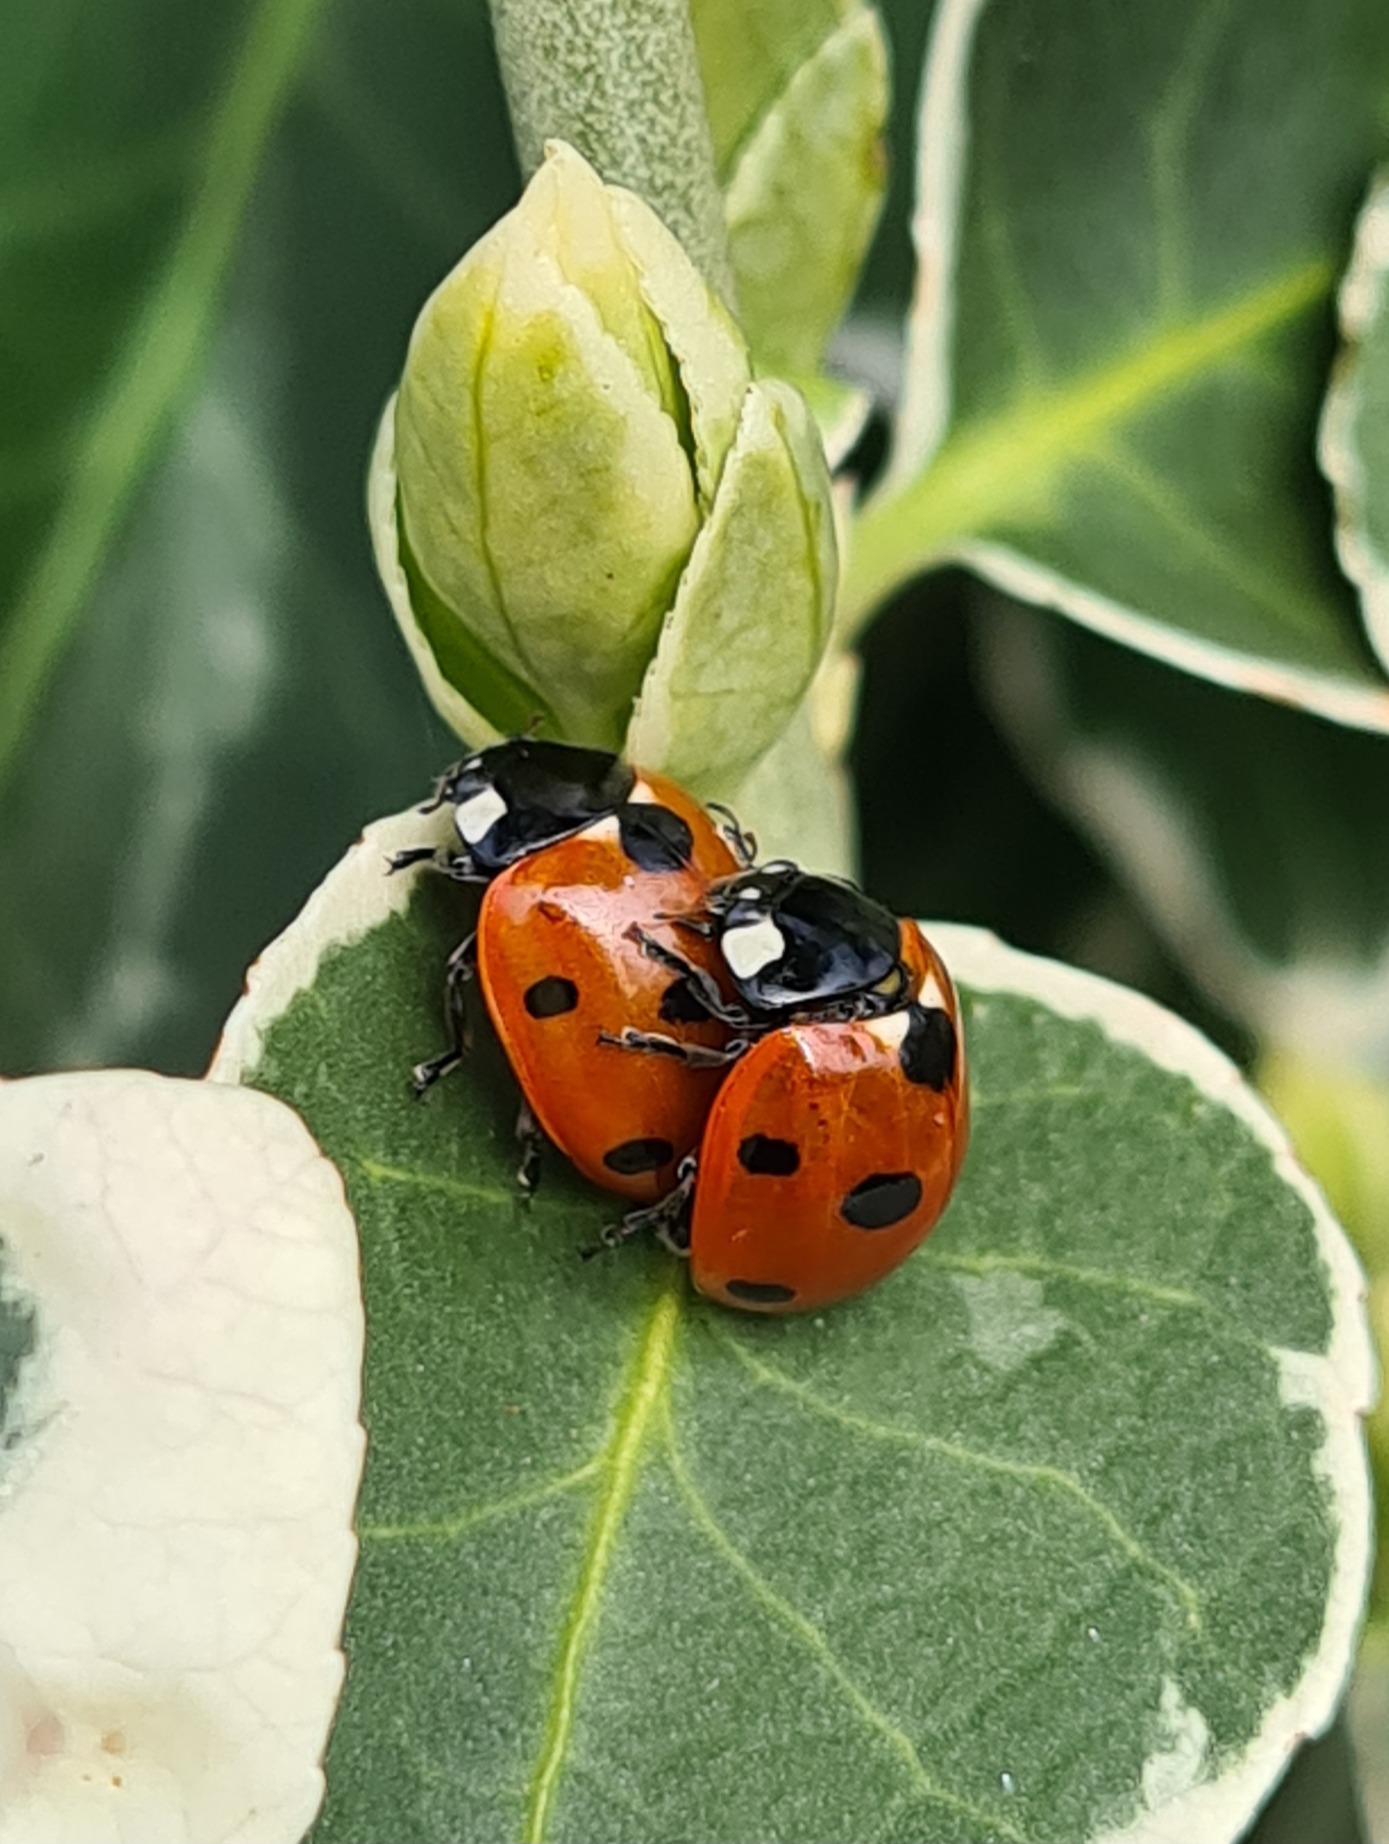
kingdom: Animalia
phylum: Arthropoda
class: Insecta
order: Coleoptera
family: Coccinellidae
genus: Coccinella
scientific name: Coccinella septempunctata
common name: Syvplettet mariehøne
